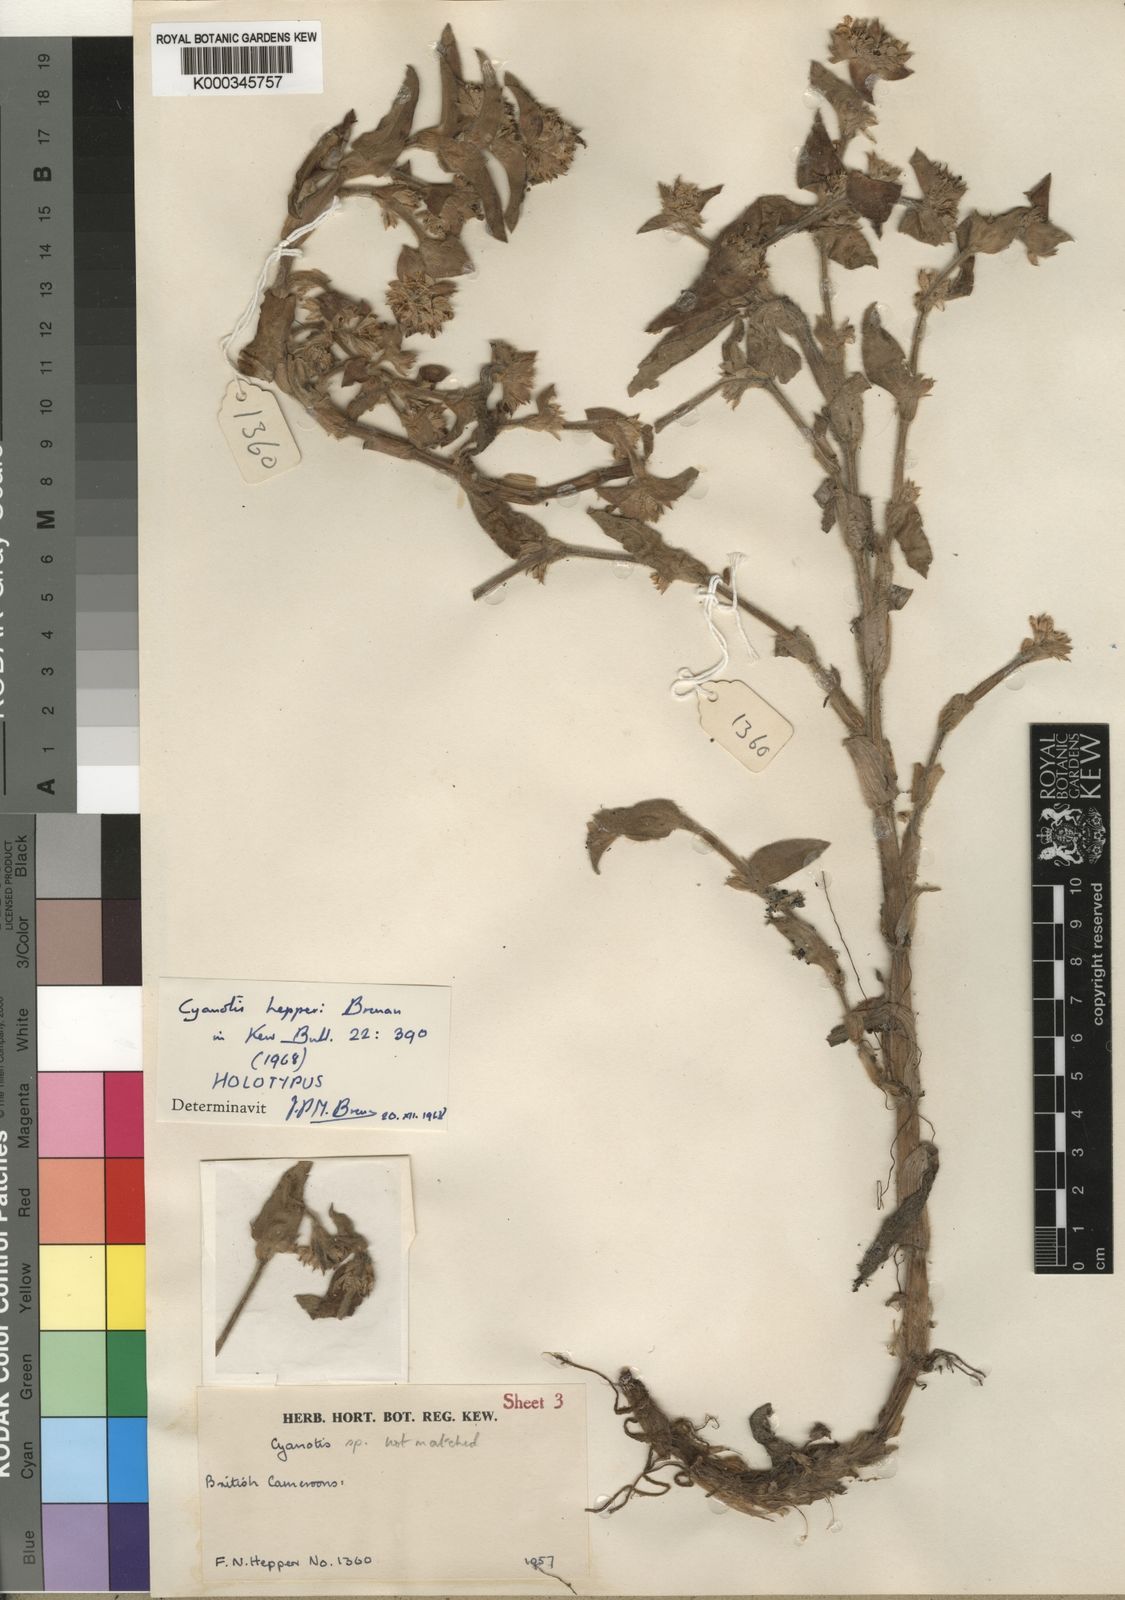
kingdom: Plantae
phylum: Tracheophyta
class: Liliopsida
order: Commelinales
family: Commelinaceae
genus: Cyanotis
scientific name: Cyanotis hepperi
